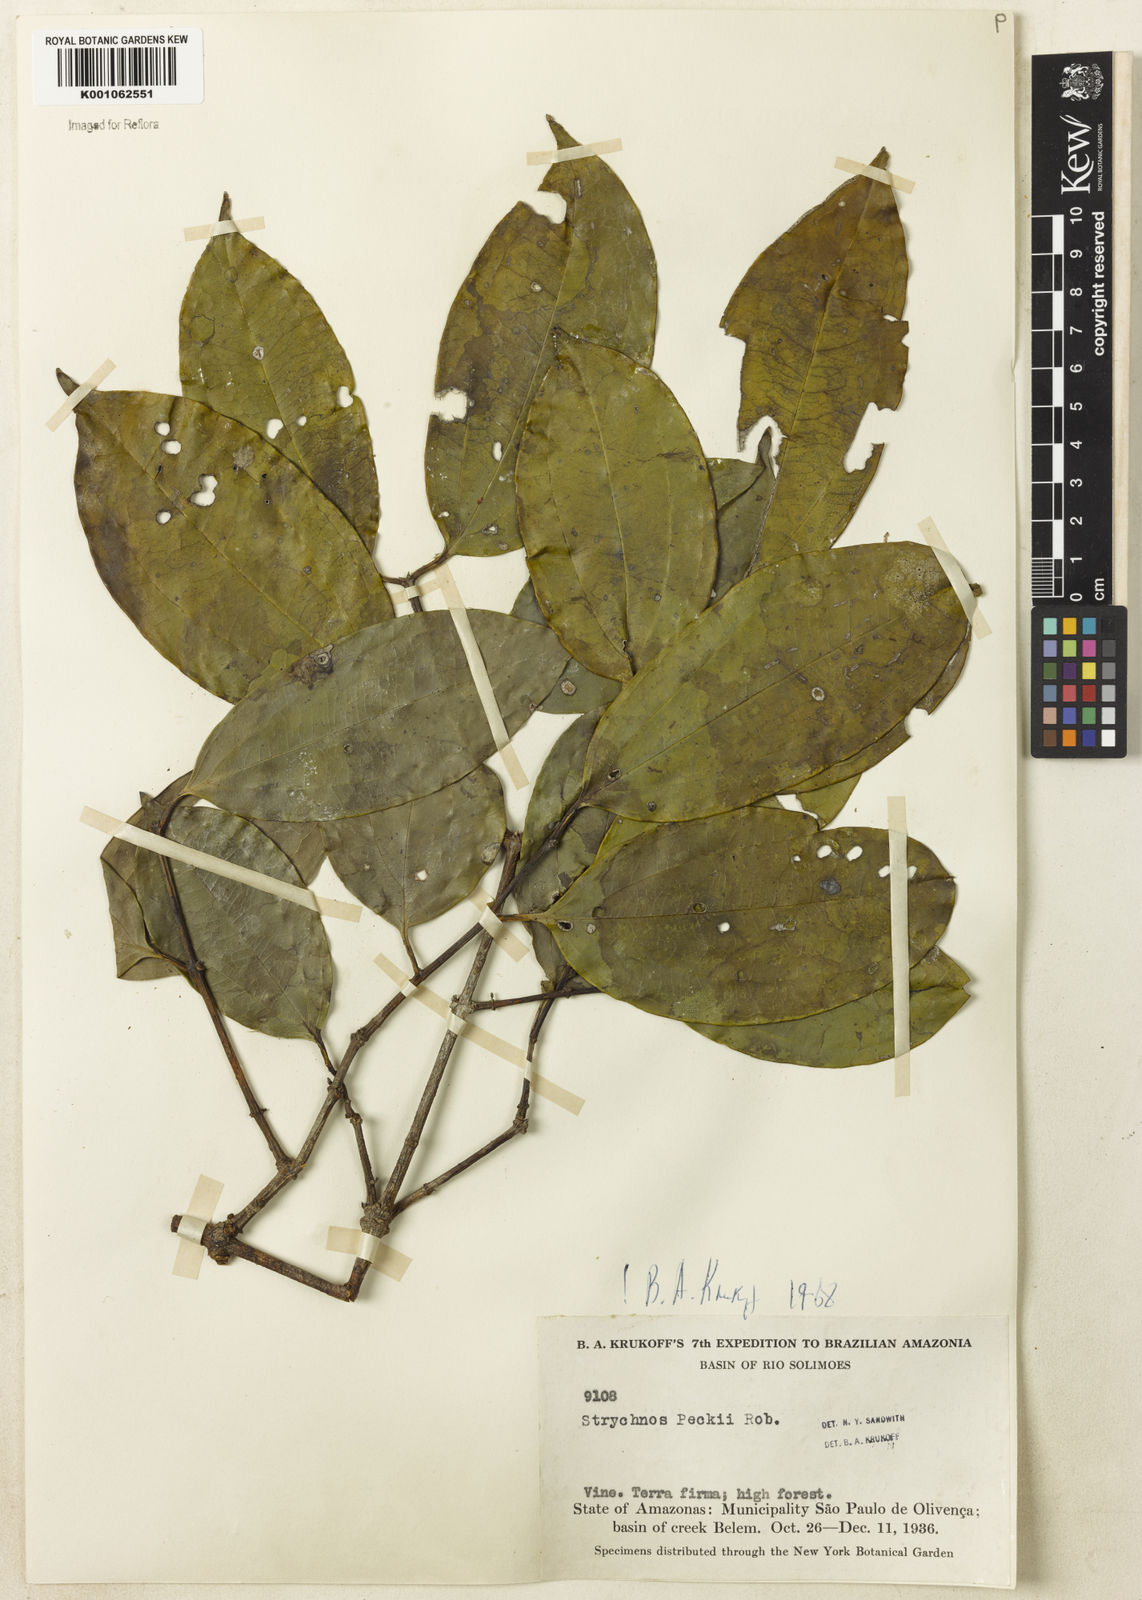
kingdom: Plantae
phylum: Tracheophyta
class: Magnoliopsida
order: Gentianales
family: Loganiaceae
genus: Strychnos
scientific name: Strychnos peckii
